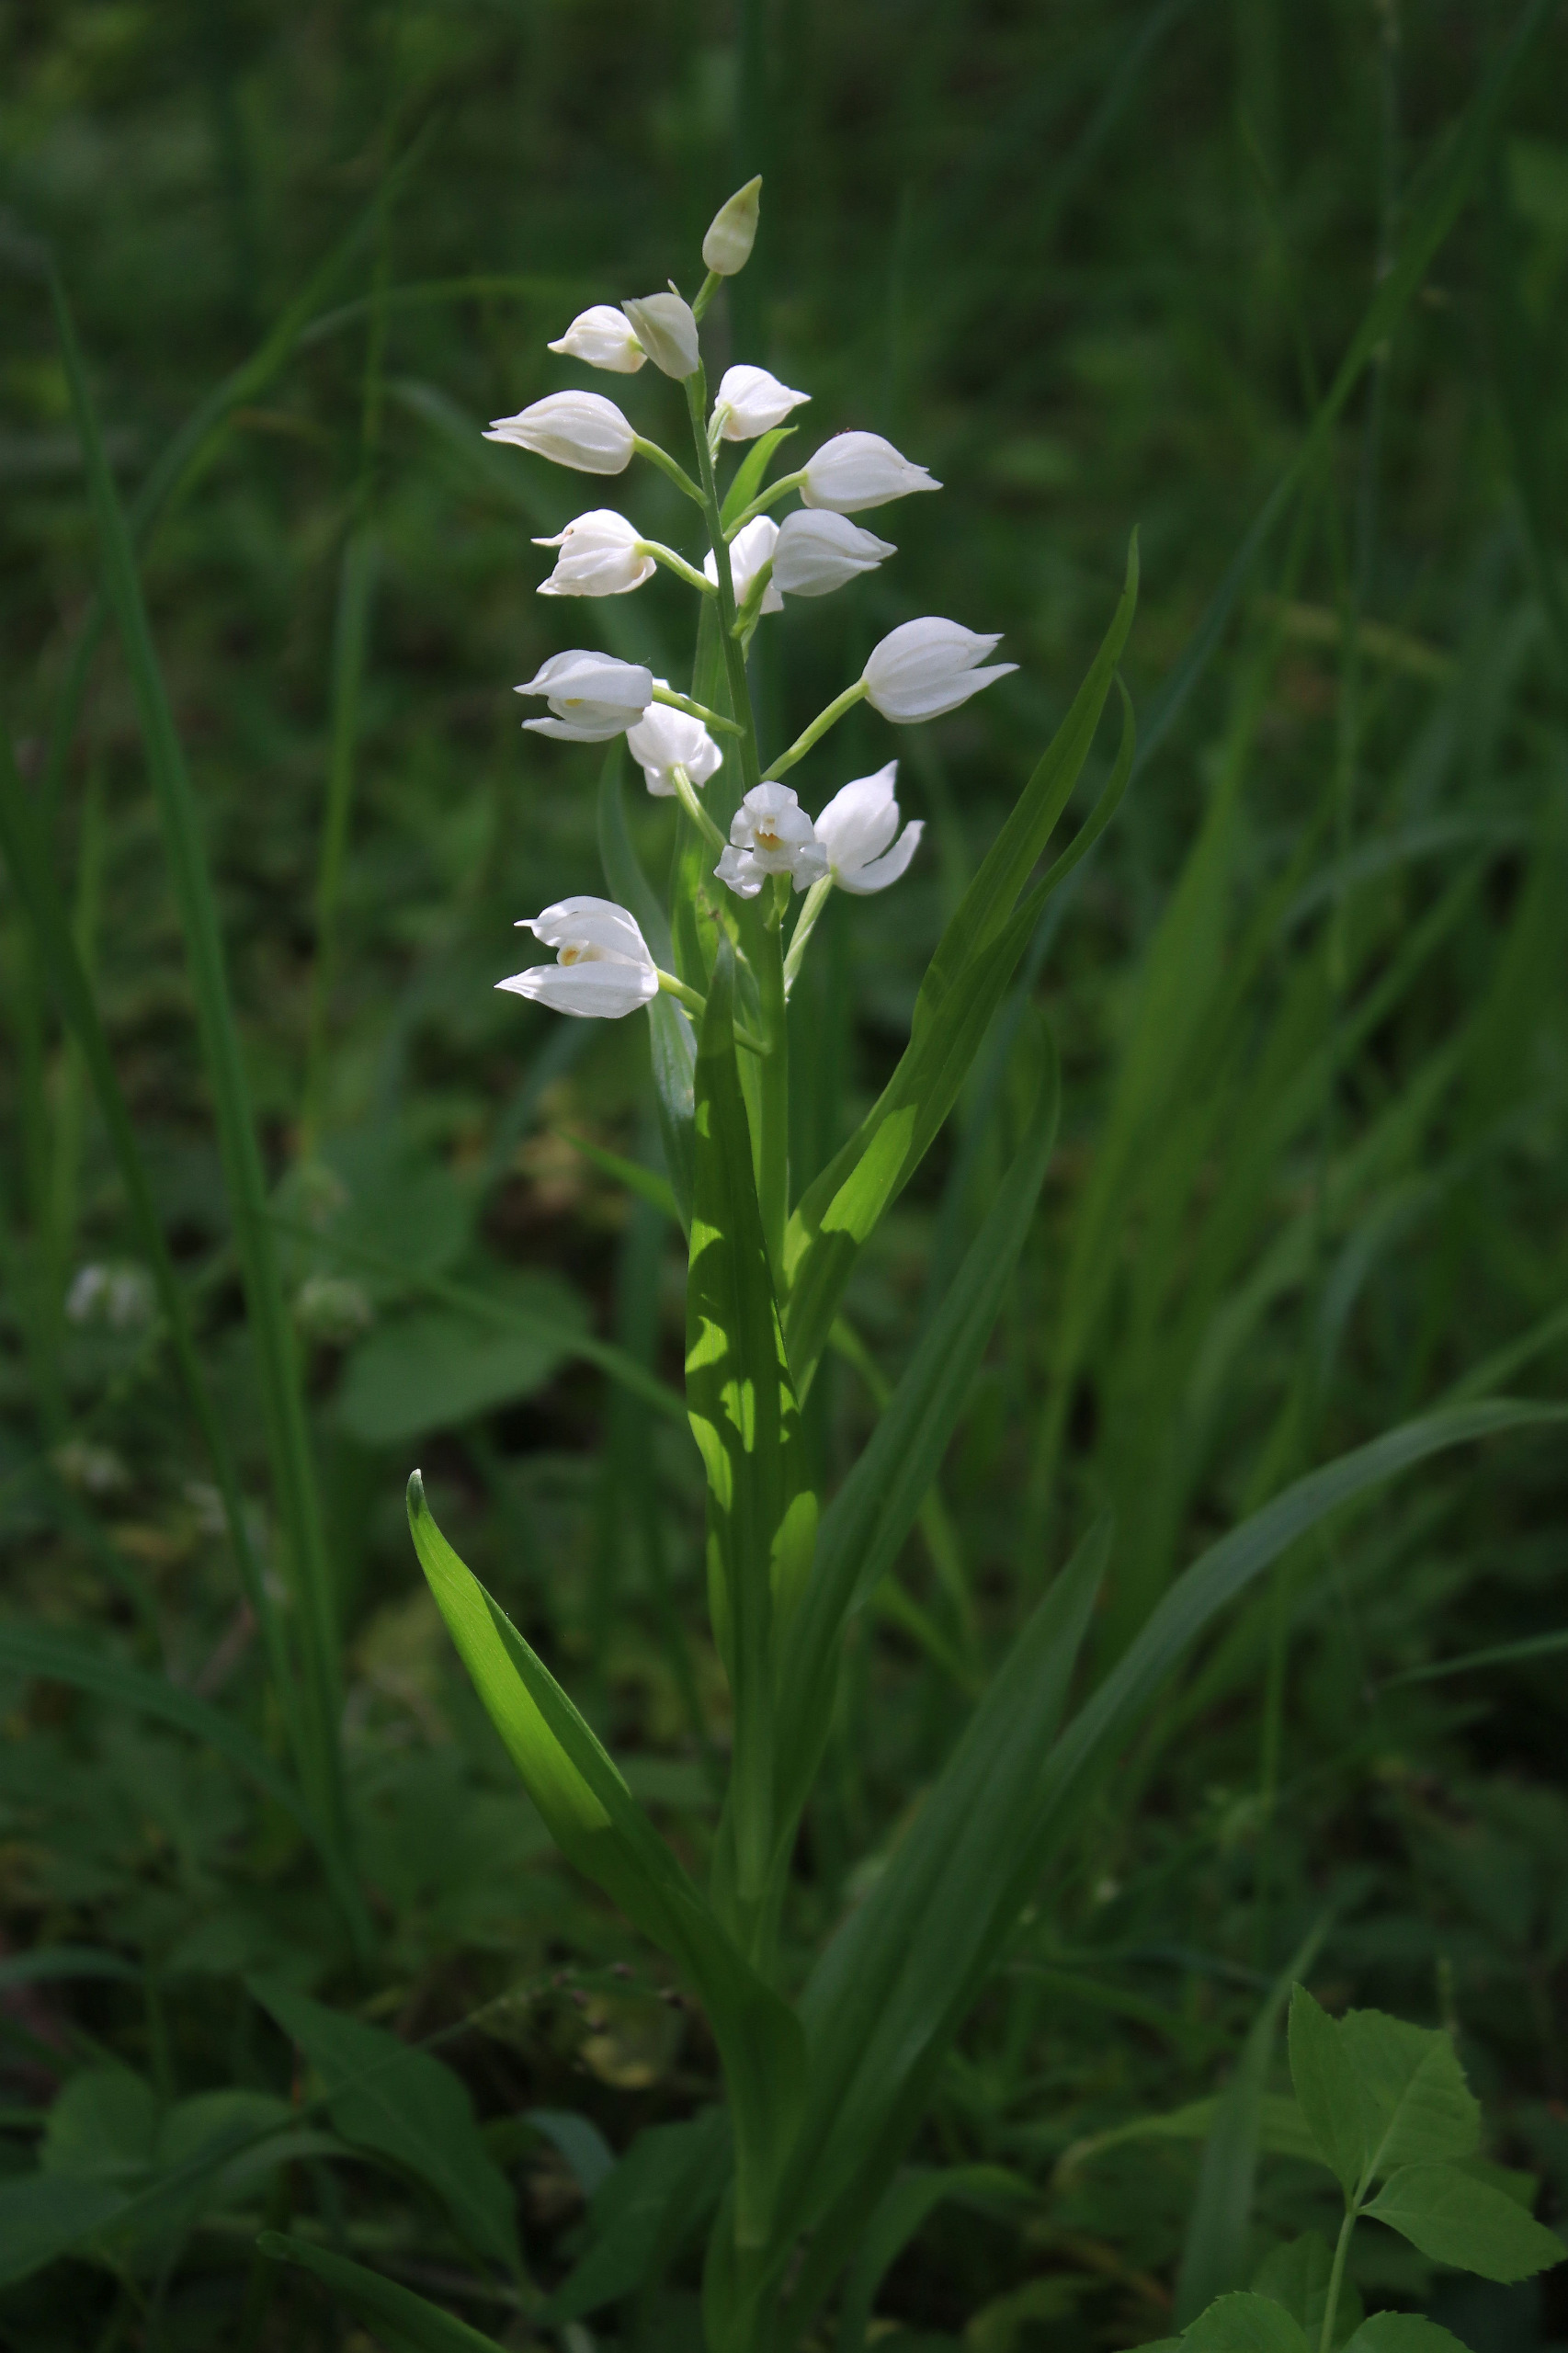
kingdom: Plantae
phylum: Tracheophyta
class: Liliopsida
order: Asparagales
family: Orchidaceae
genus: Cephalanthera
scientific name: Cephalanthera longifolia
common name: Sværd-skovlilje
